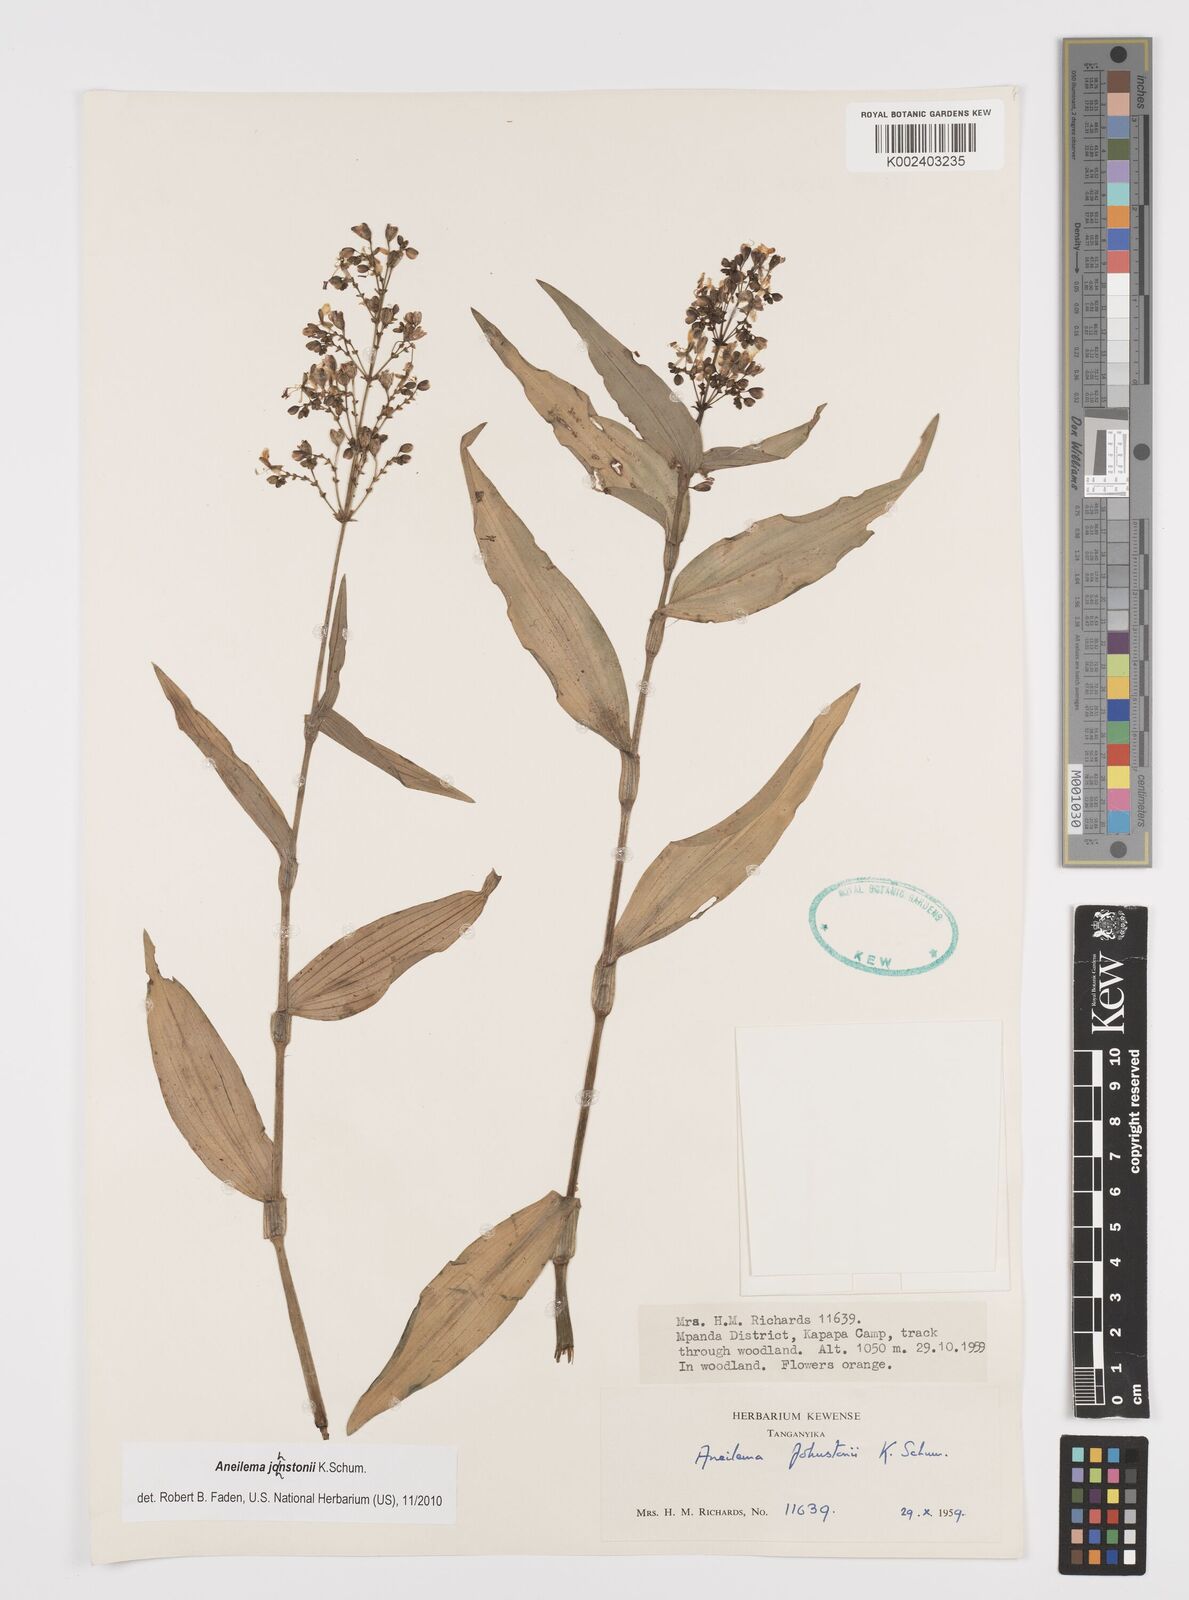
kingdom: Plantae
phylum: Tracheophyta
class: Liliopsida
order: Commelinales
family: Commelinaceae
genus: Aneilema
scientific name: Aneilema johnstonii
